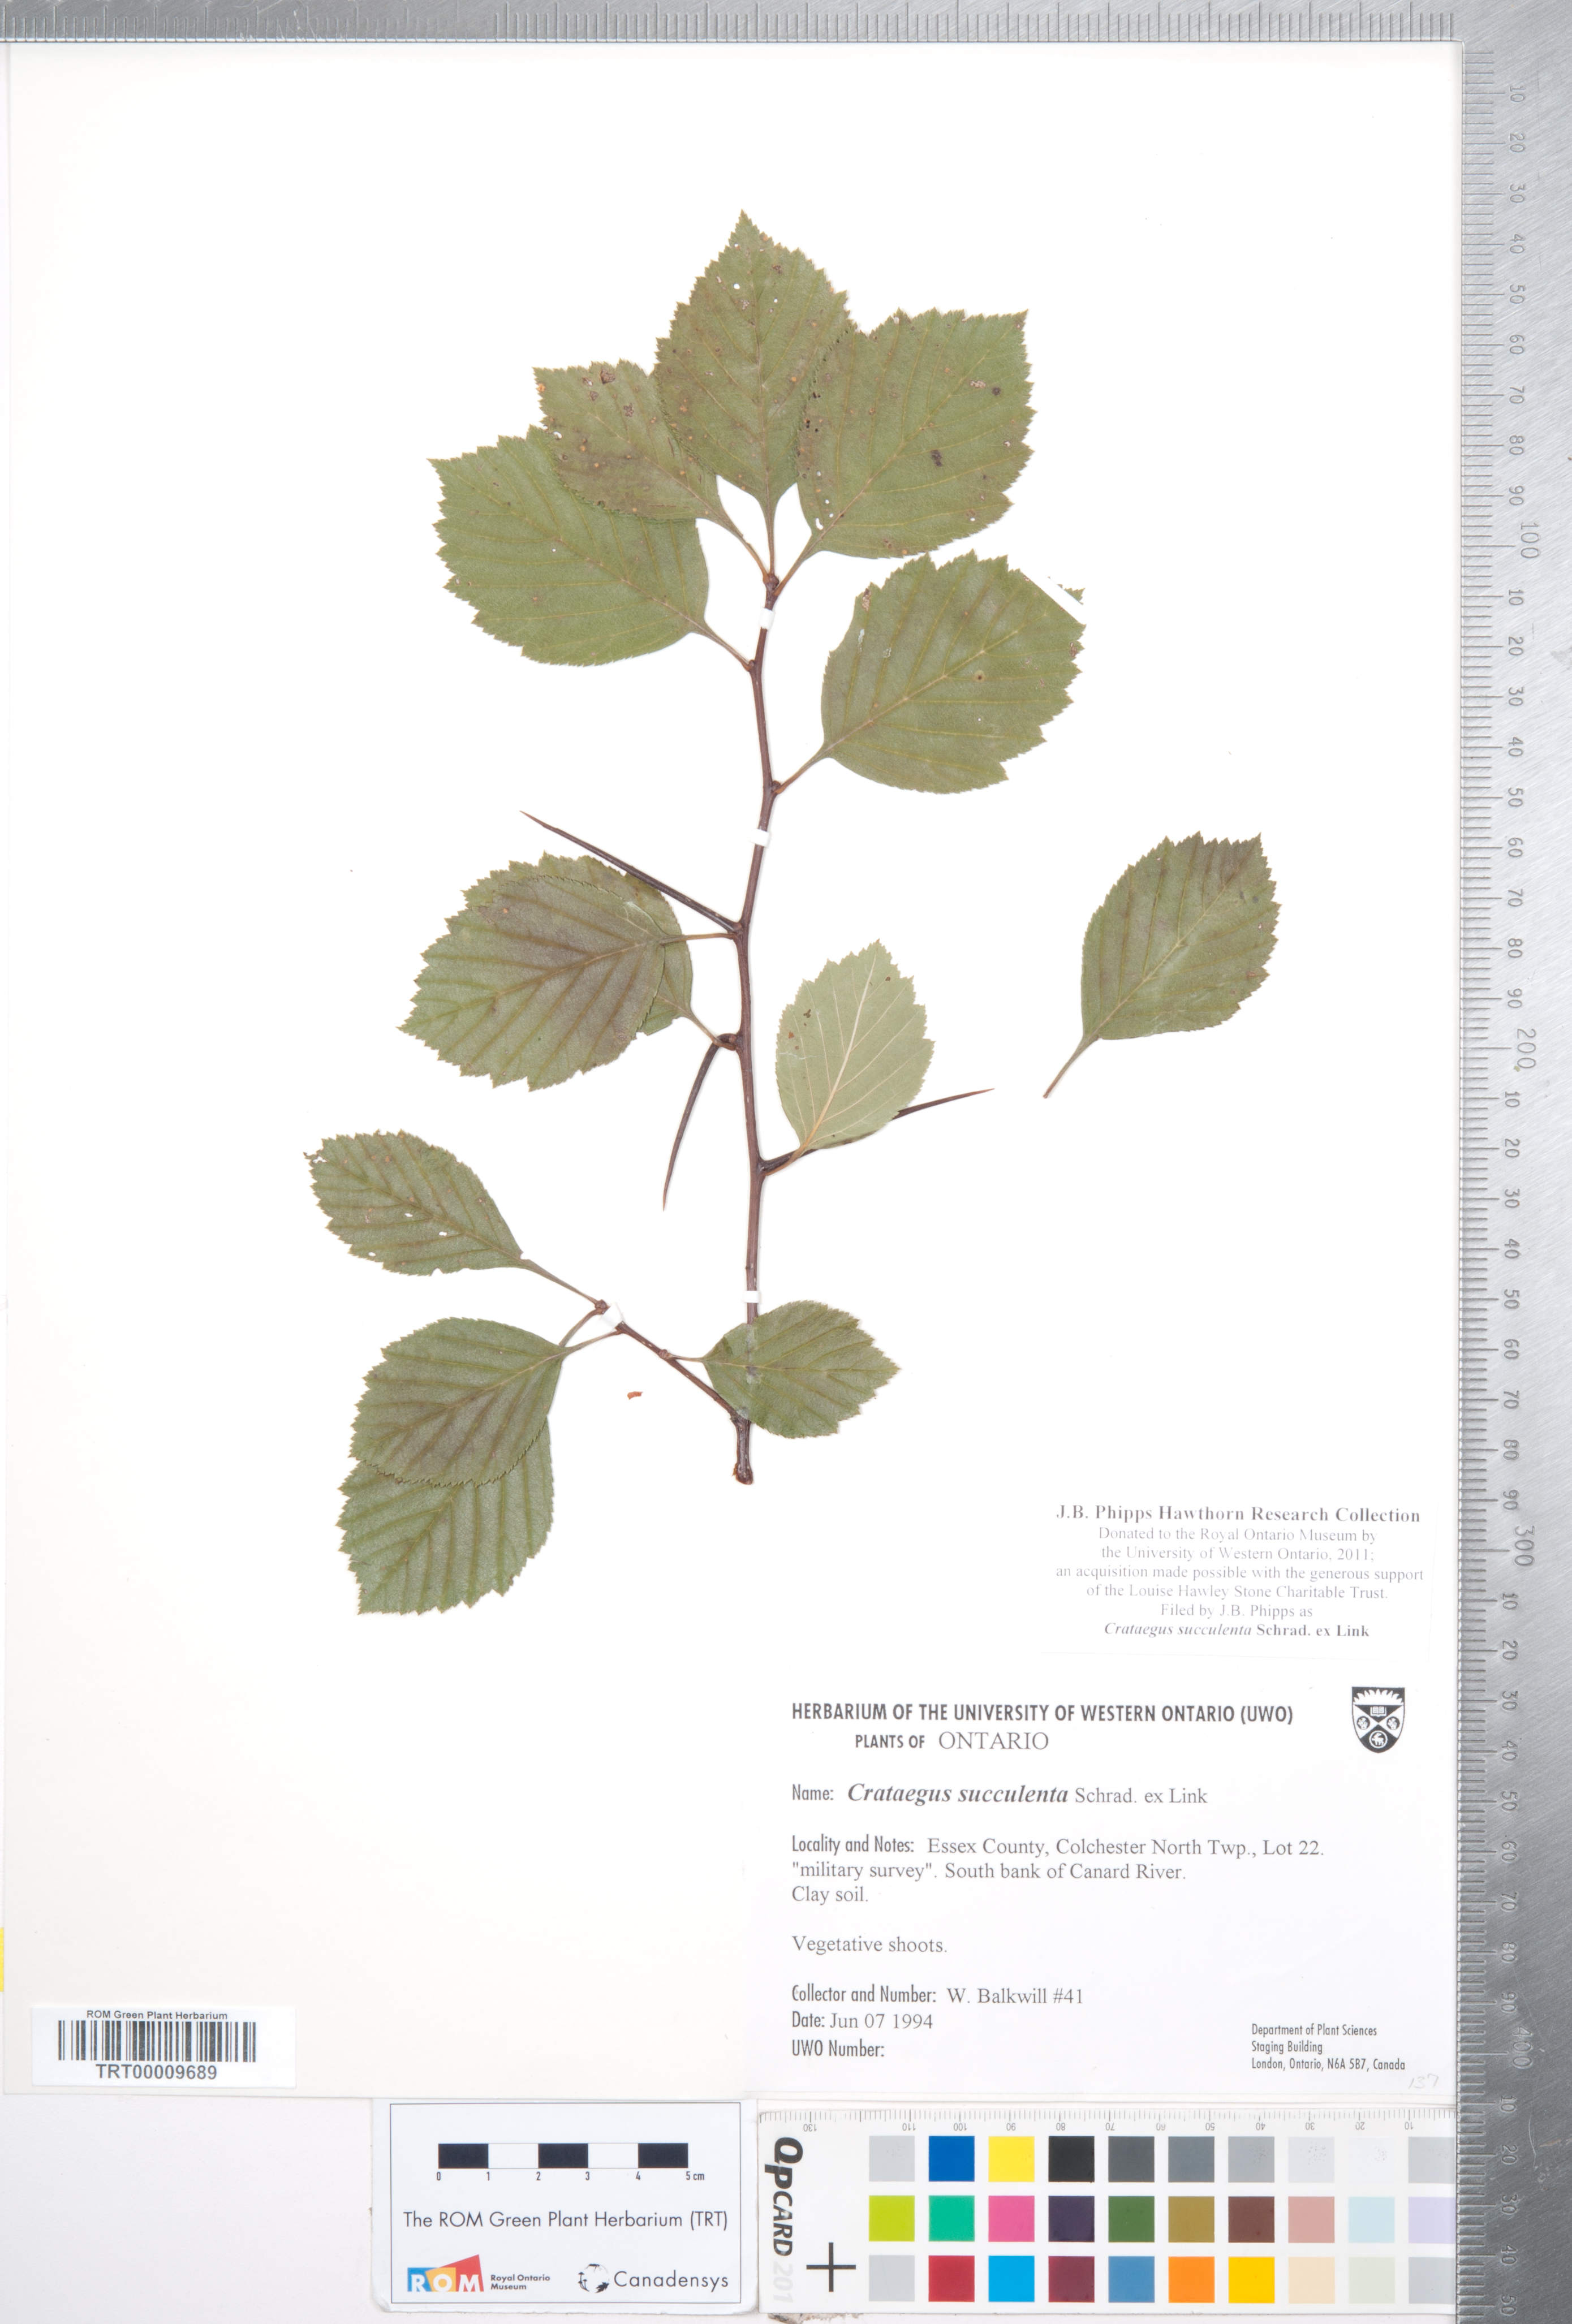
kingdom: Plantae
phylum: Tracheophyta
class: Magnoliopsida
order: Rosales
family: Rosaceae
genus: Crataegus
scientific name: Crataegus succulenta
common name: Fleshy hawthorn
